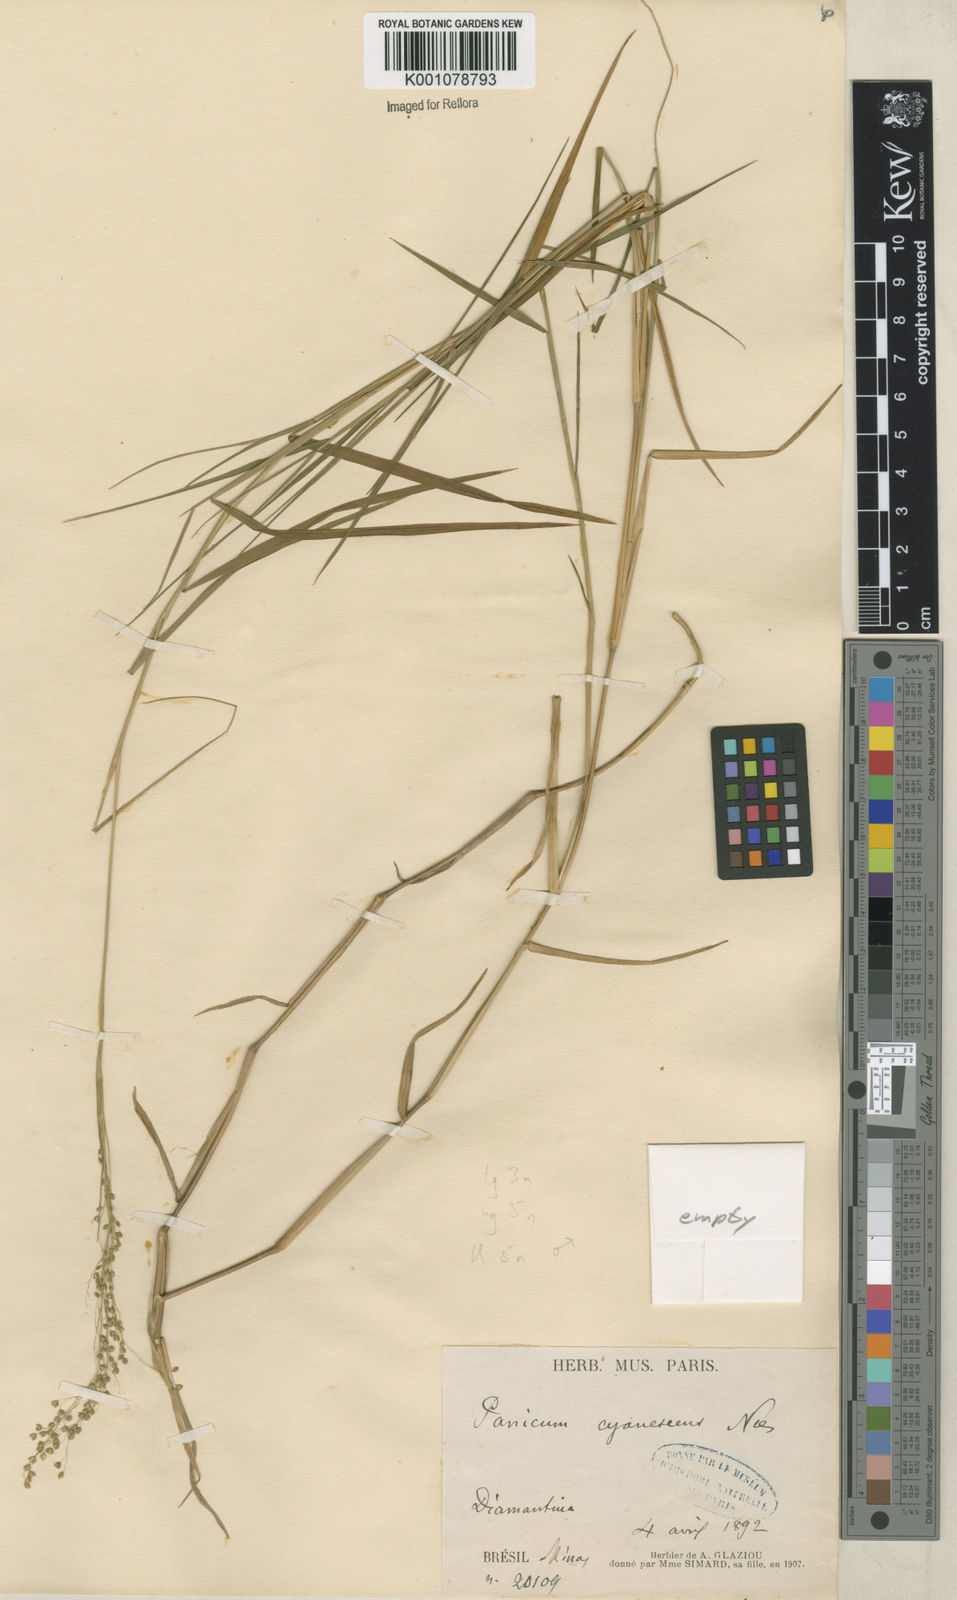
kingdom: Plantae
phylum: Tracheophyta
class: Liliopsida
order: Poales
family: Poaceae
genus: Trichanthecium
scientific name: Trichanthecium pseudisachne
